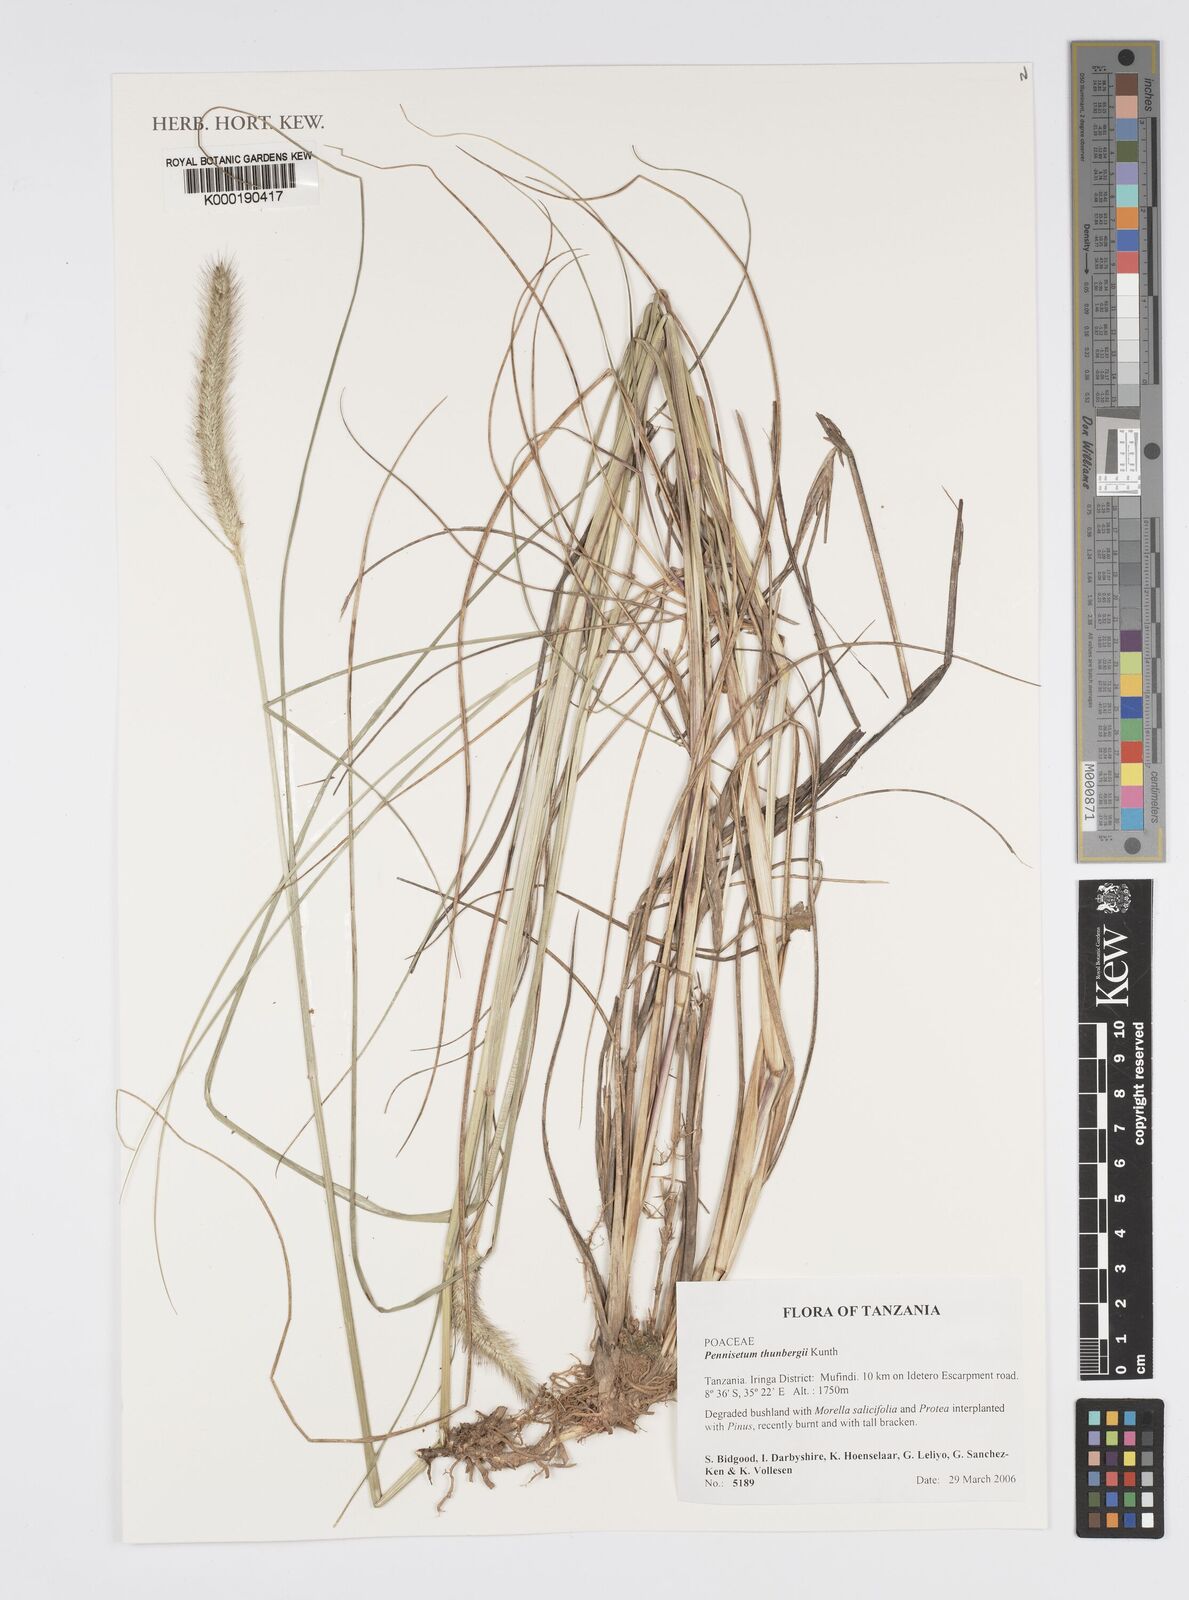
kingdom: Plantae
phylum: Tracheophyta
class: Liliopsida
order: Poales
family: Poaceae
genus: Cenchrus
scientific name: Cenchrus geniculatus
